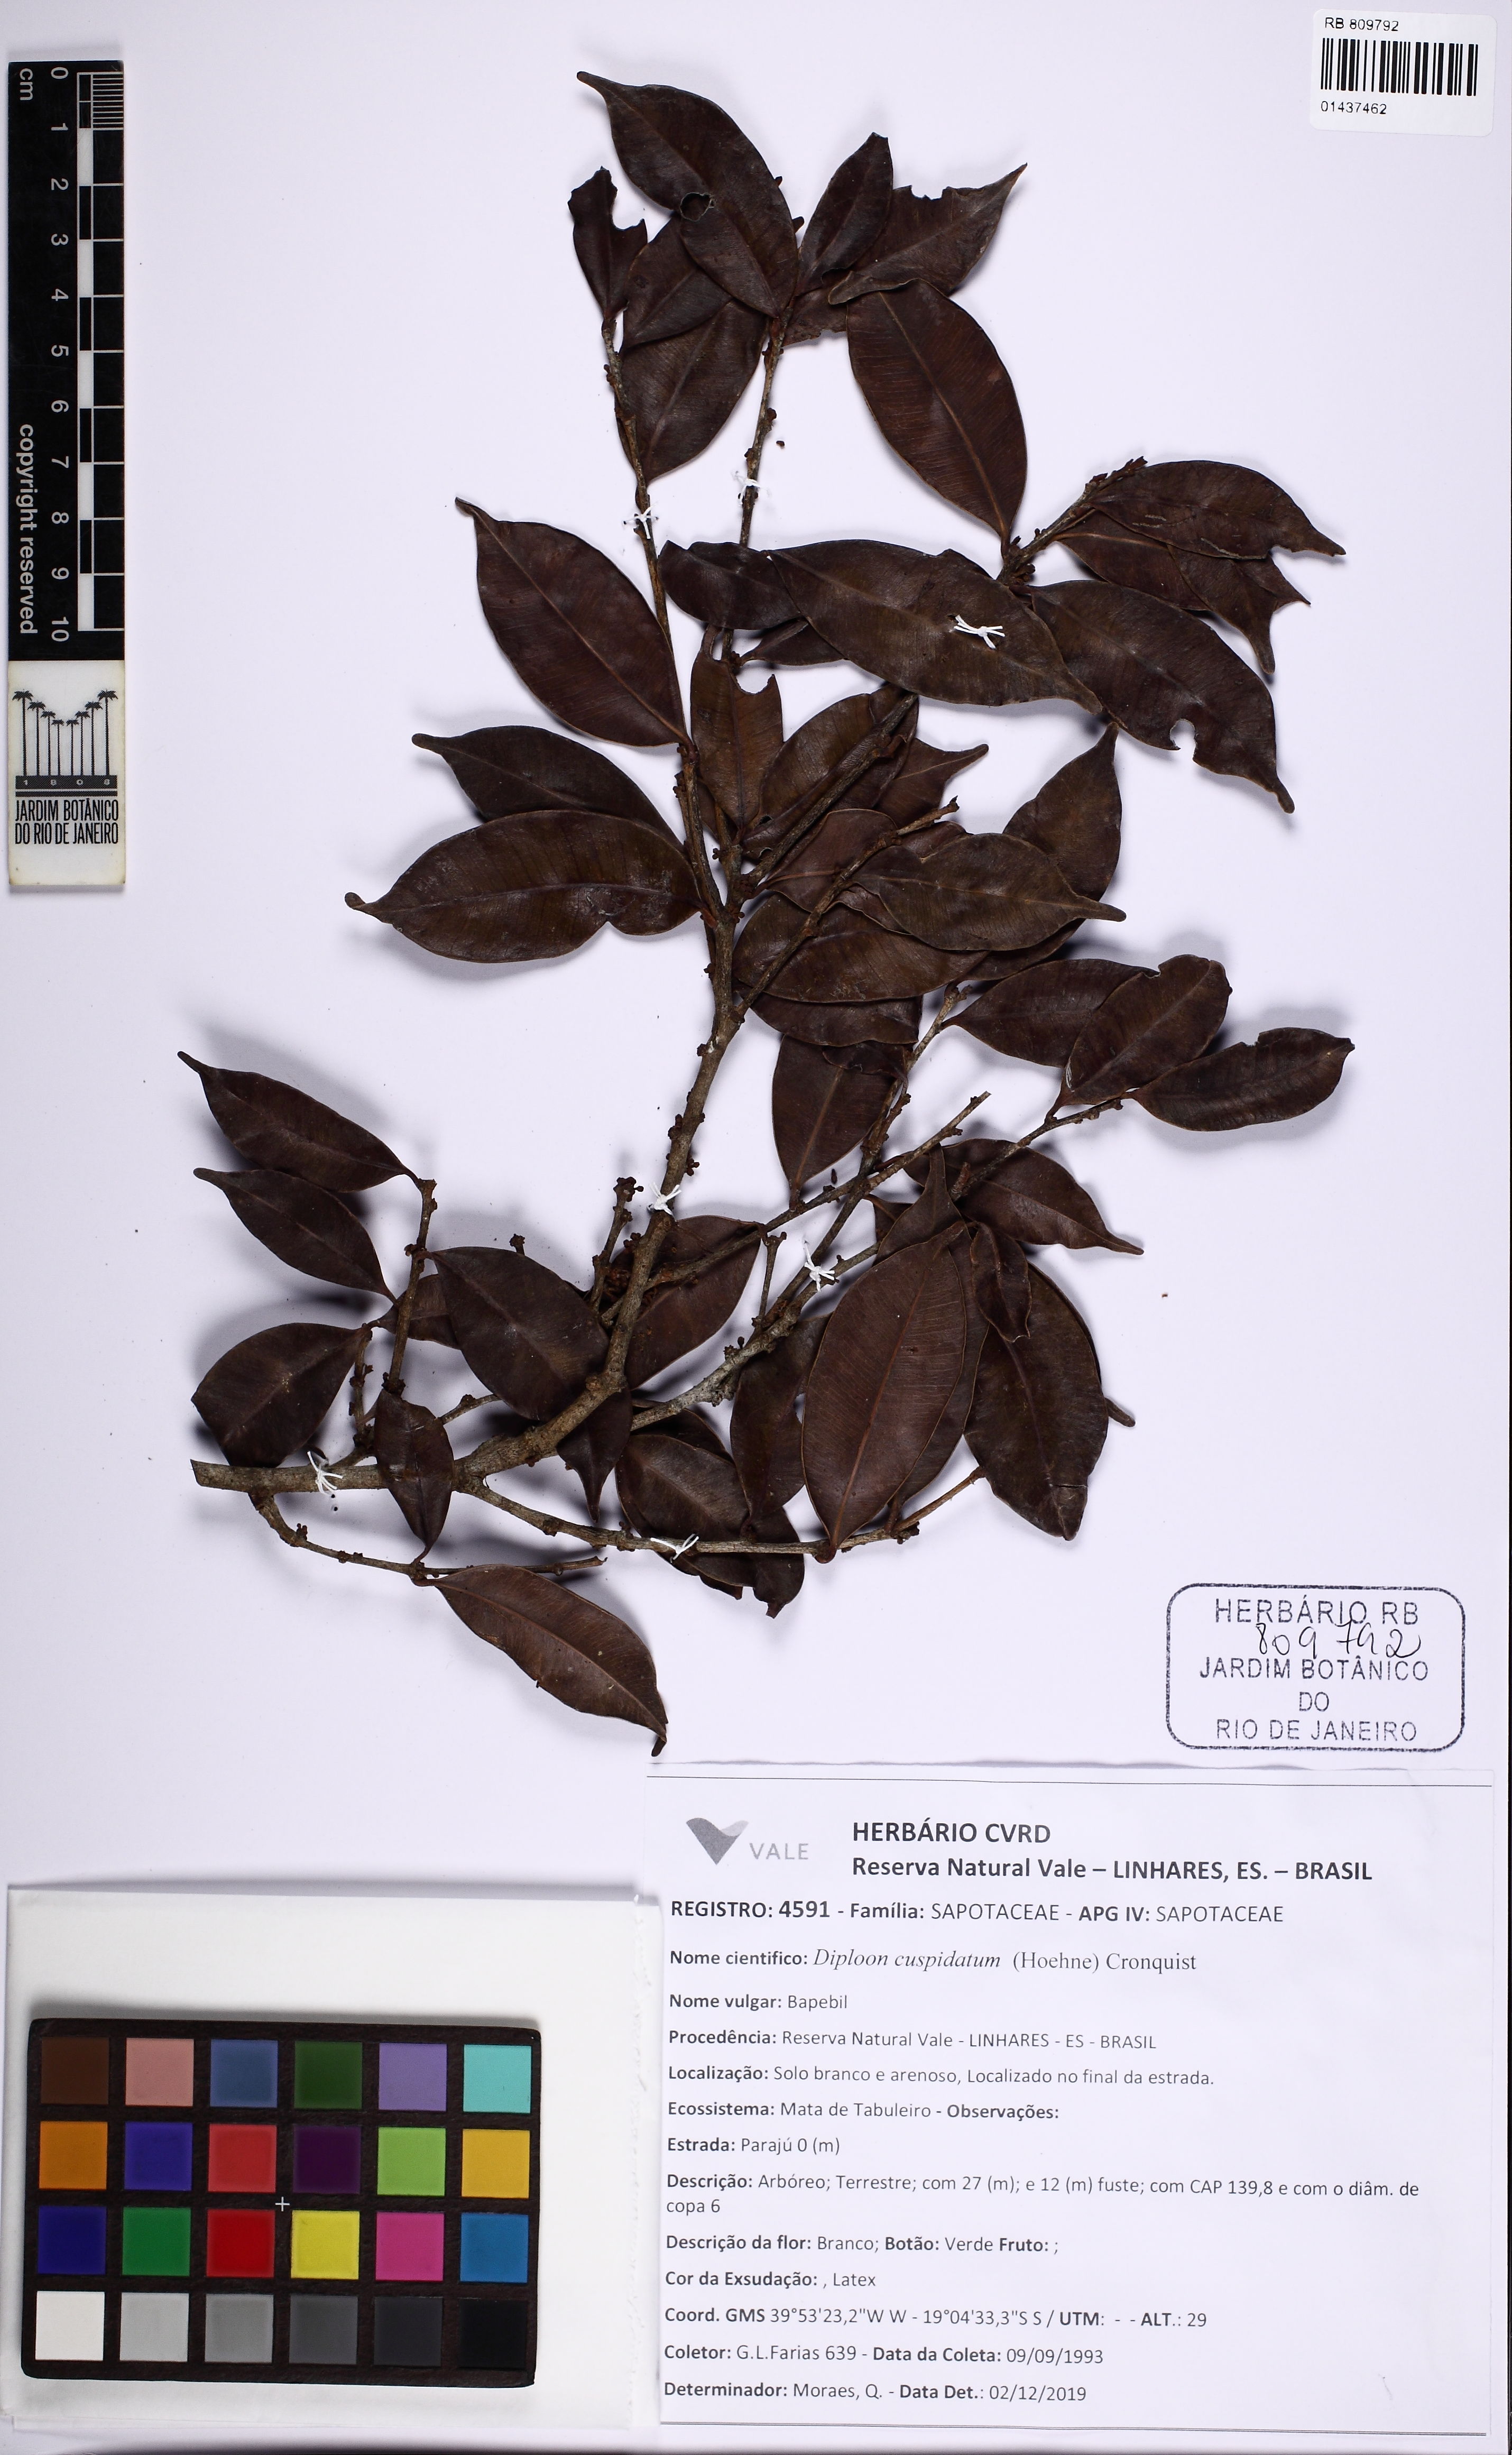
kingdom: Plantae
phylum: Tracheophyta
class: Magnoliopsida
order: Ericales
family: Sapotaceae
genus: Diploon
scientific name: Diploon cuspidatum
